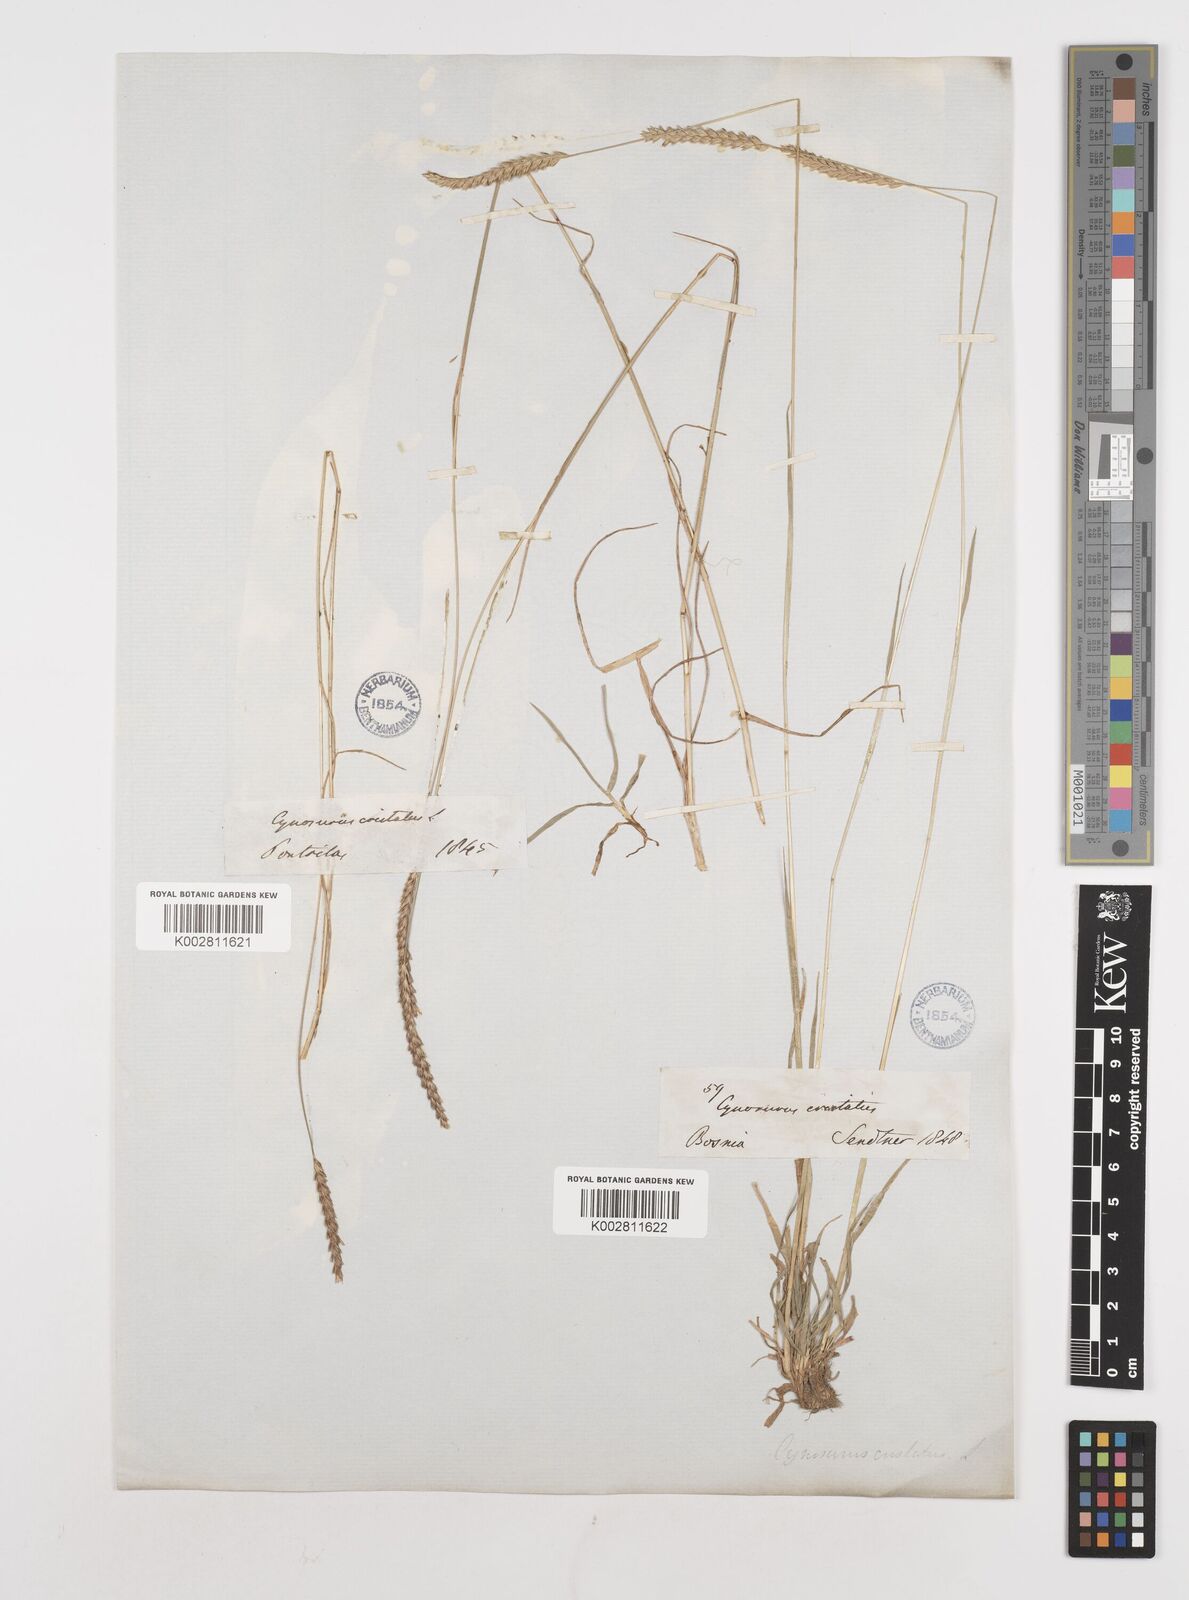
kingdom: Plantae
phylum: Tracheophyta
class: Liliopsida
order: Poales
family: Poaceae
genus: Cynosurus
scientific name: Cynosurus cristatus
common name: Crested dog's-tail
